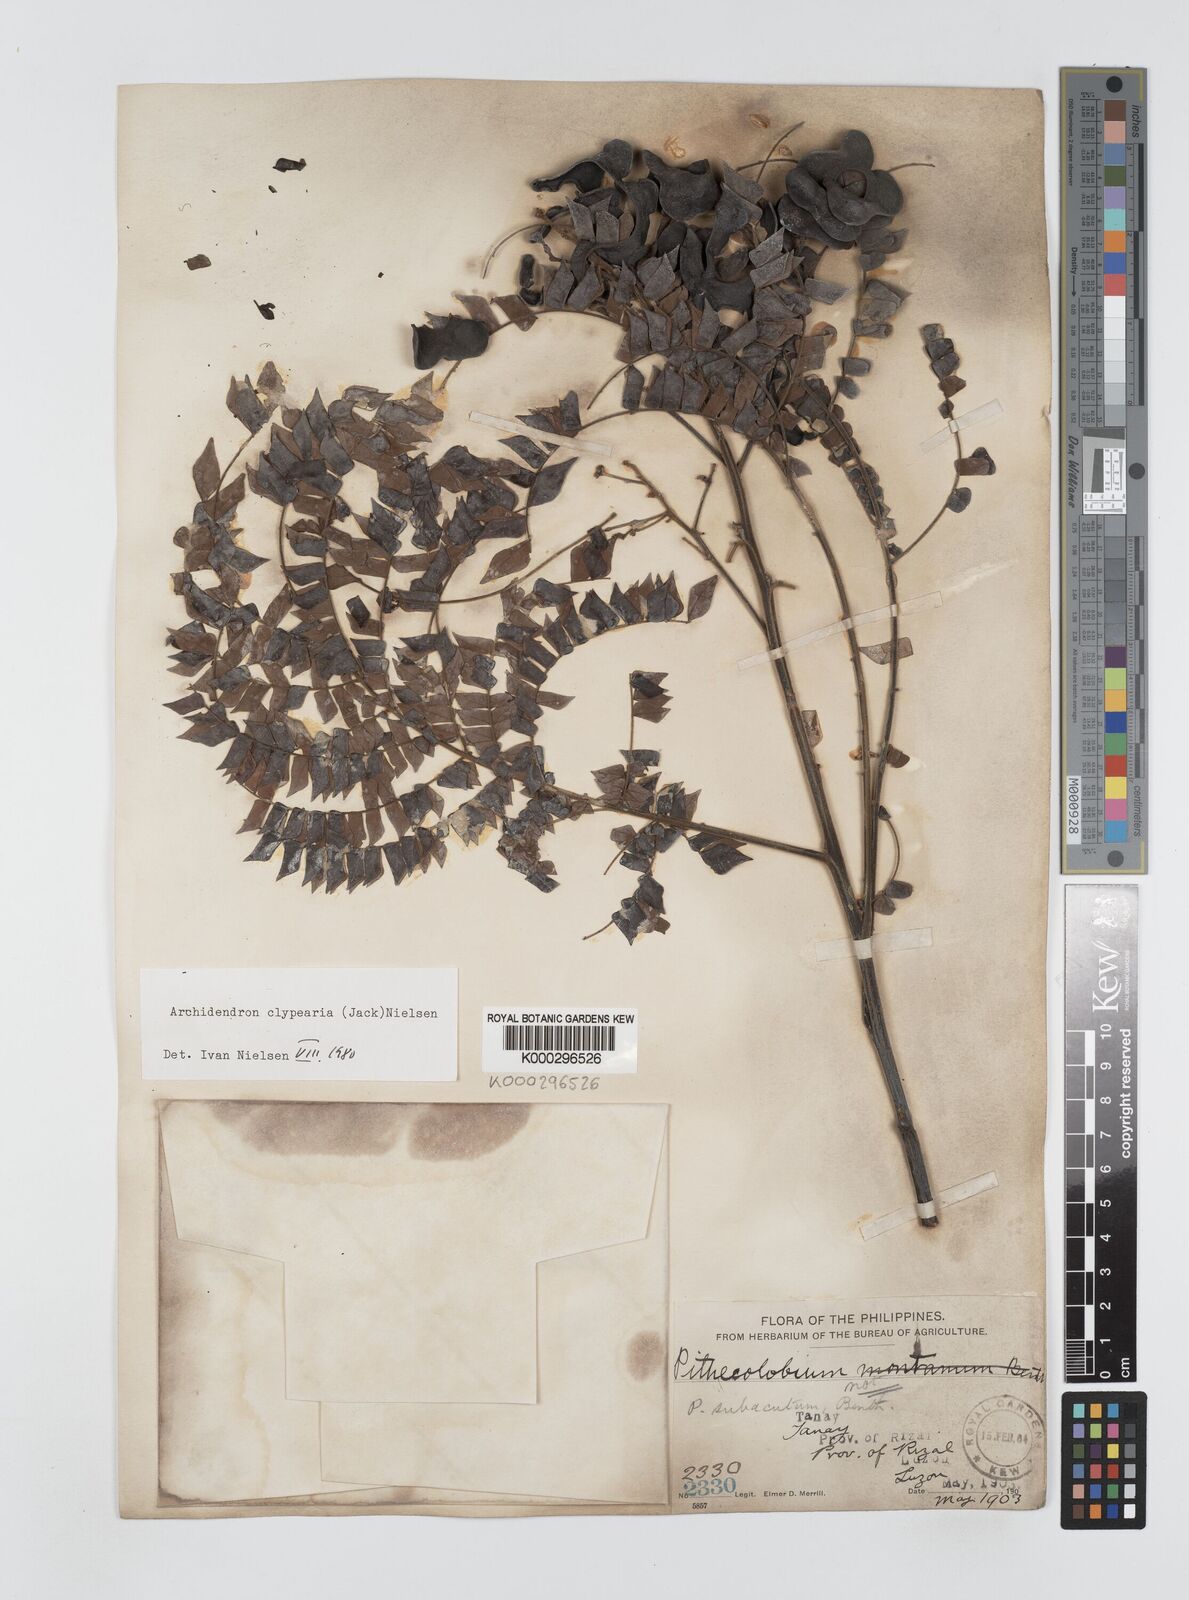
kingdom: Plantae
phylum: Tracheophyta
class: Magnoliopsida
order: Fabales
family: Fabaceae
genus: Archidendron
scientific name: Archidendron clypearia
